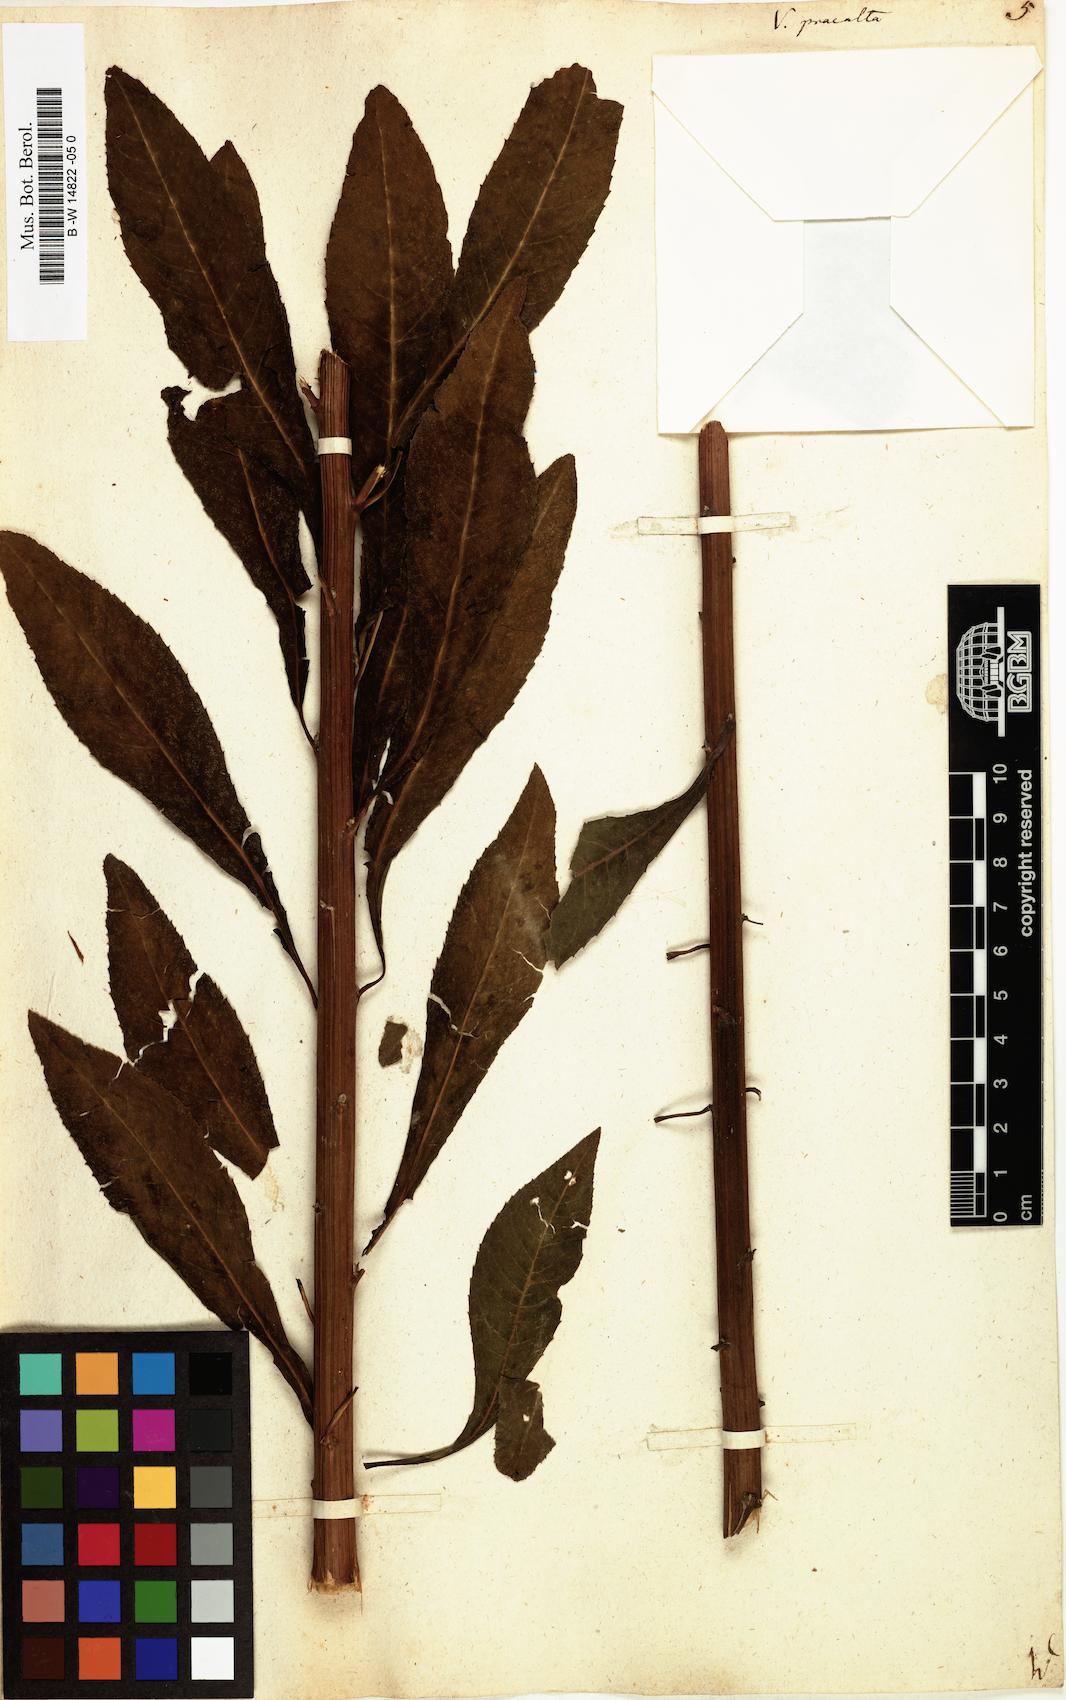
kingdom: Plantae
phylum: Tracheophyta
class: Magnoliopsida
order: Asterales
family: Asteraceae
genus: Vernonia
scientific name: Vernonia praealta
